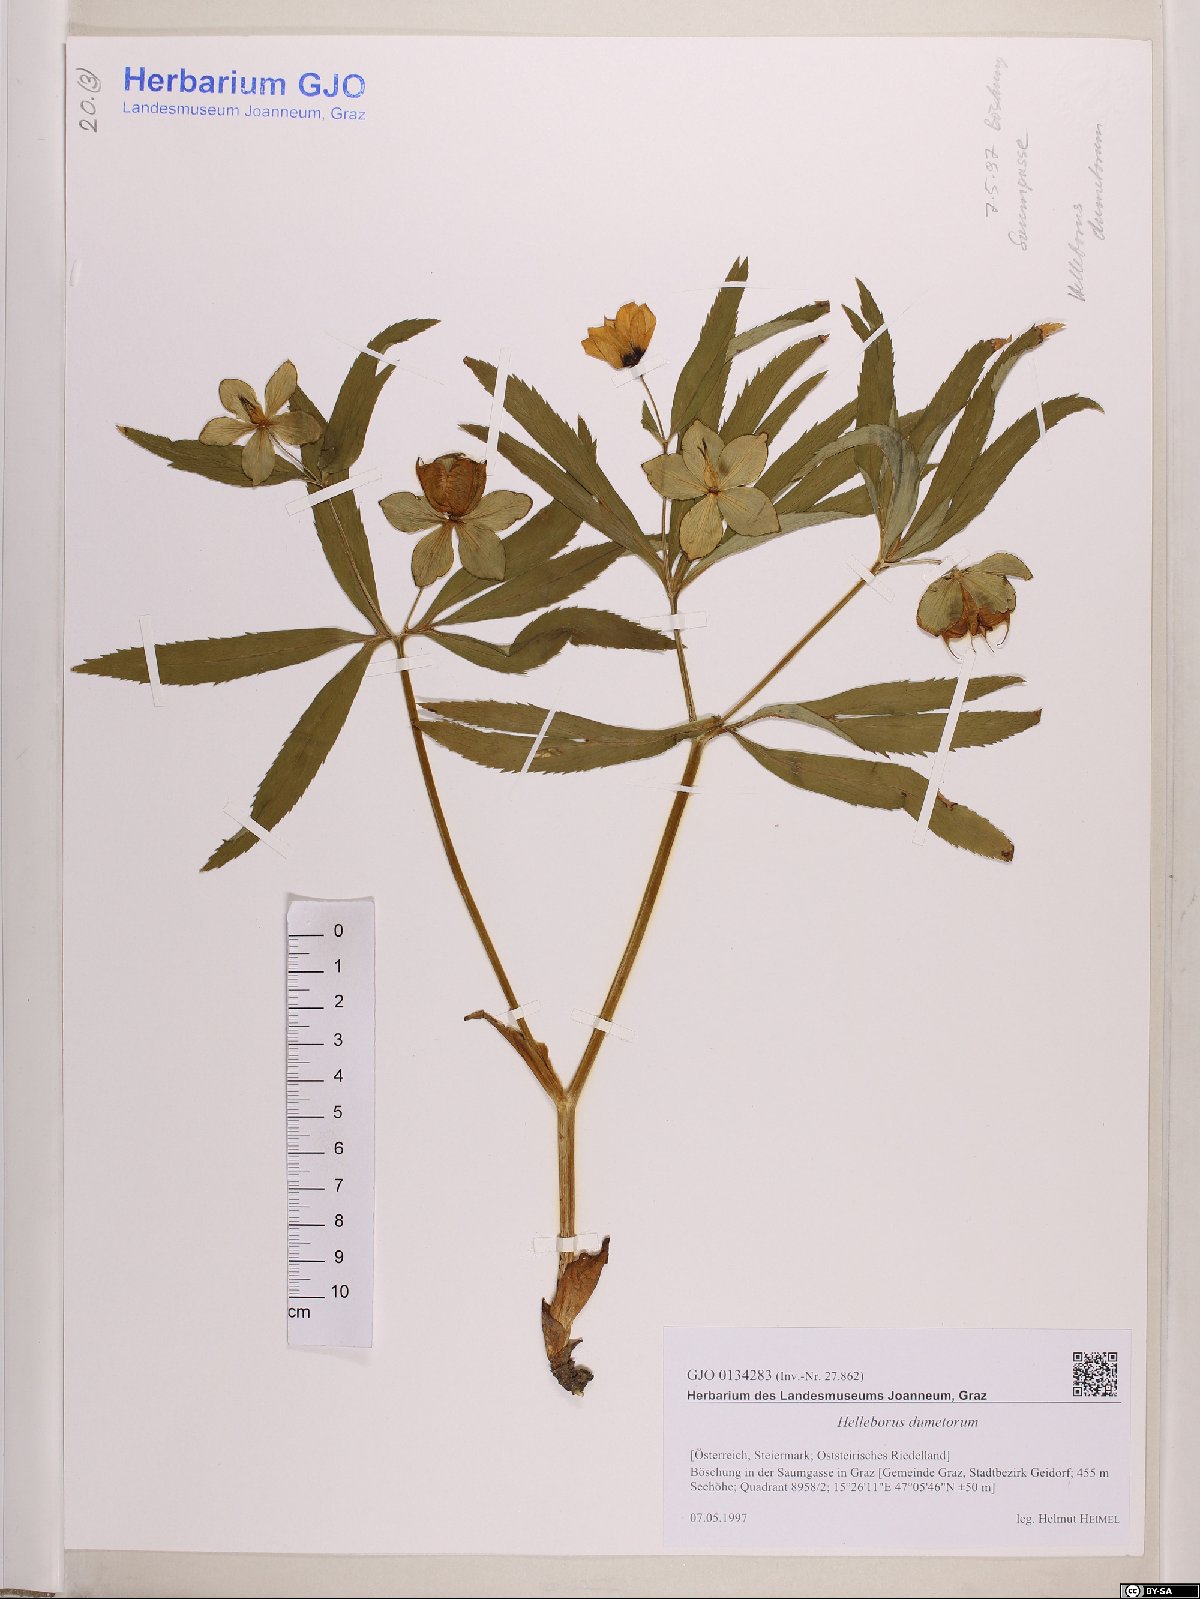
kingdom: Plantae
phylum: Tracheophyta
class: Magnoliopsida
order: Ranunculales
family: Ranunculaceae
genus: Helleborus
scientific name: Helleborus dumetorum
